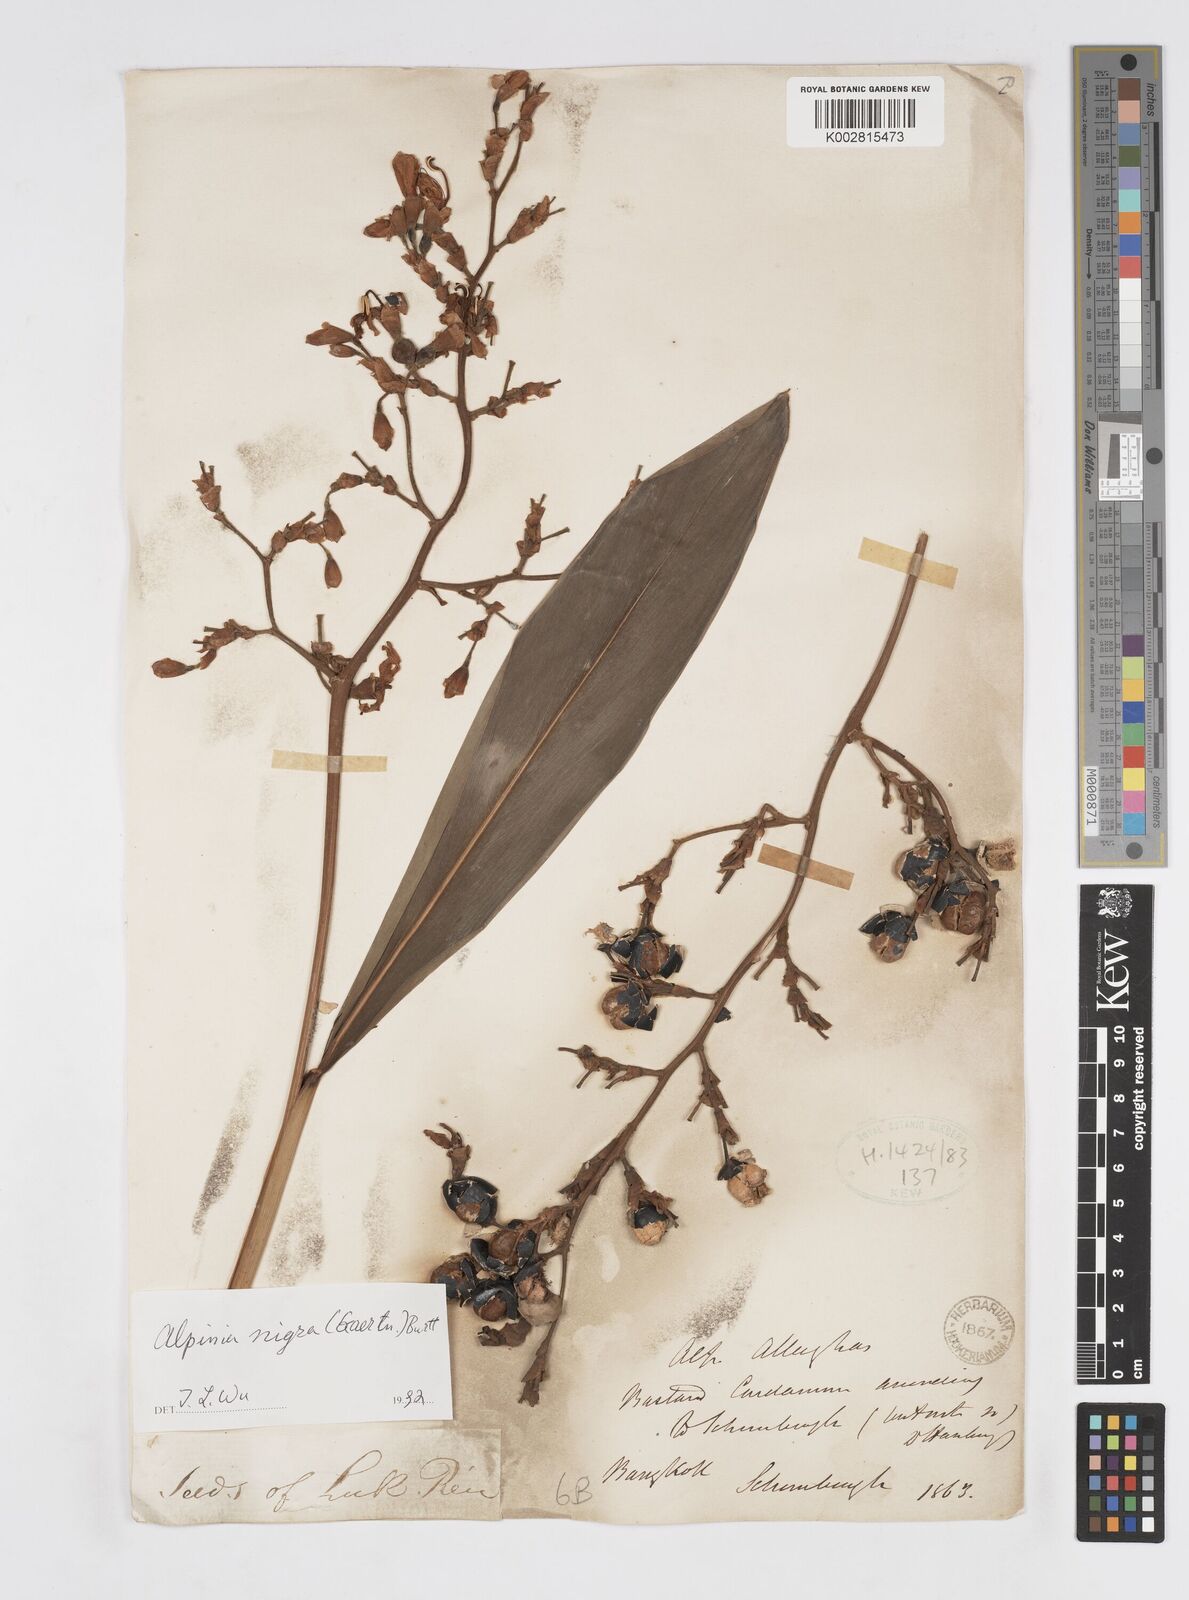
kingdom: Plantae
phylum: Tracheophyta
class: Liliopsida
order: Zingiberales
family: Zingiberaceae
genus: Alpinia
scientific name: Alpinia nigra
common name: Black fruited galanga
